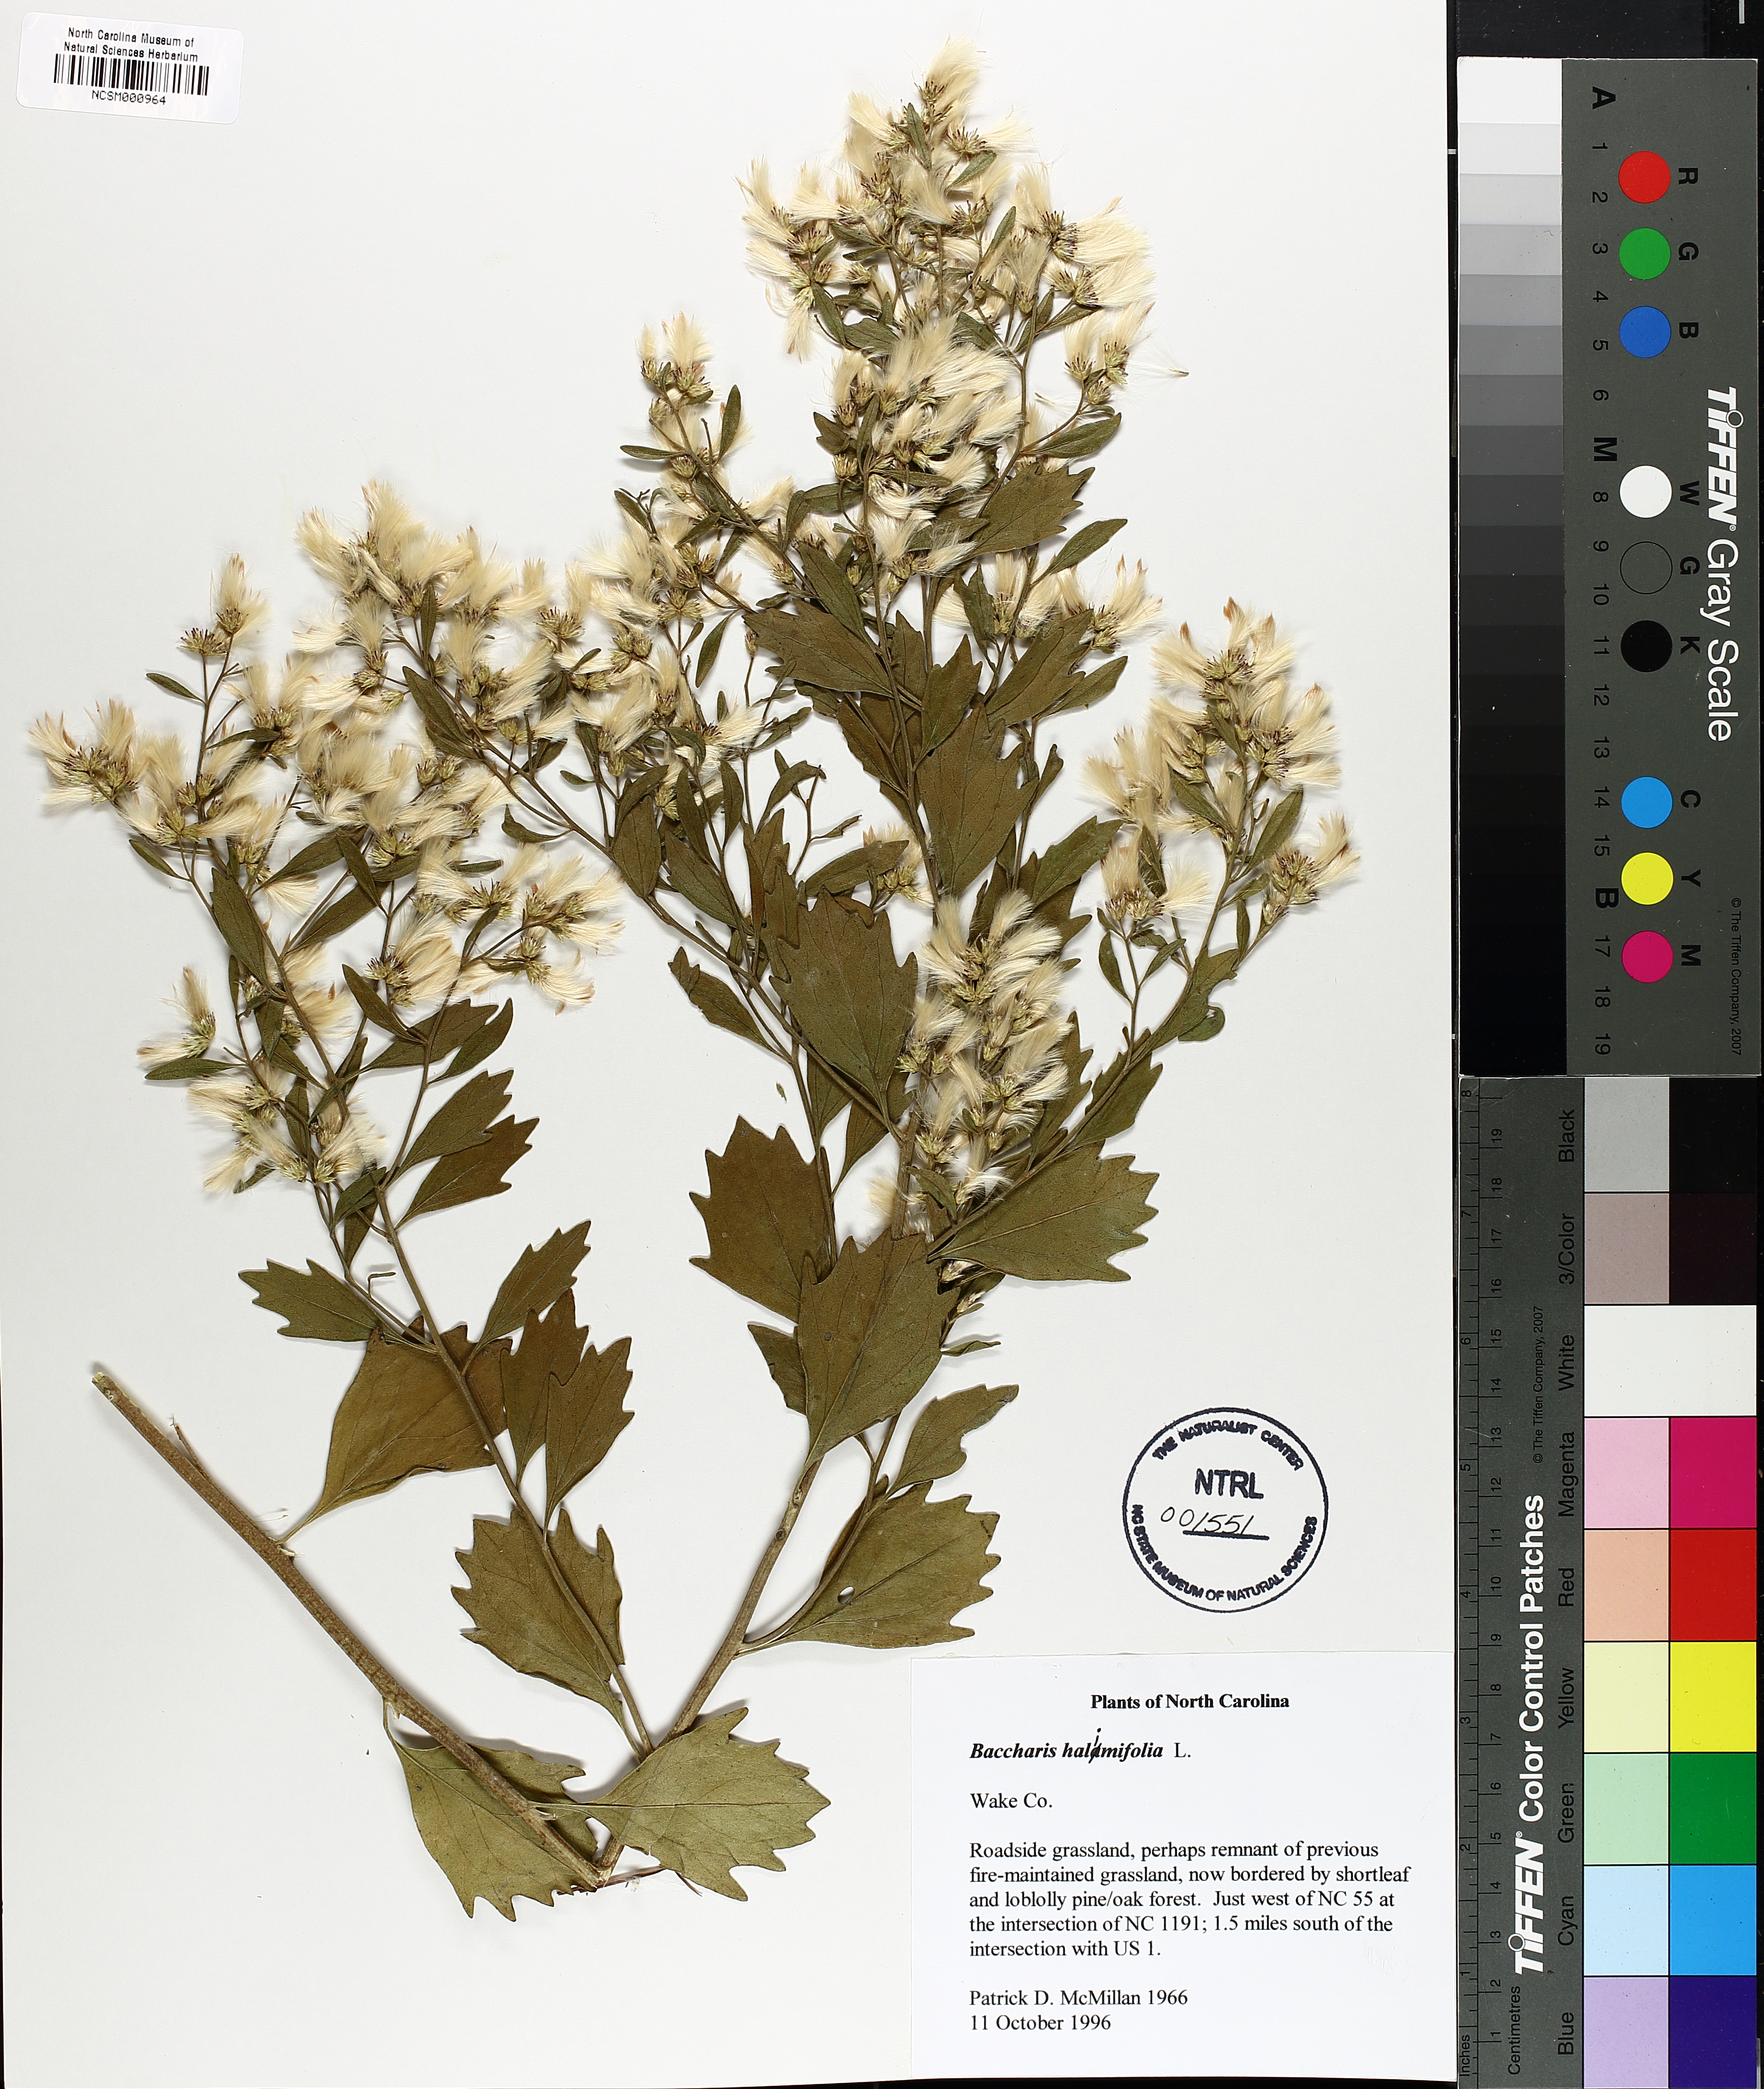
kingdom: Plantae
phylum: Tracheophyta
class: Magnoliopsida
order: Asterales
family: Asteraceae
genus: Nidorella
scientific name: Nidorella ivifolia
